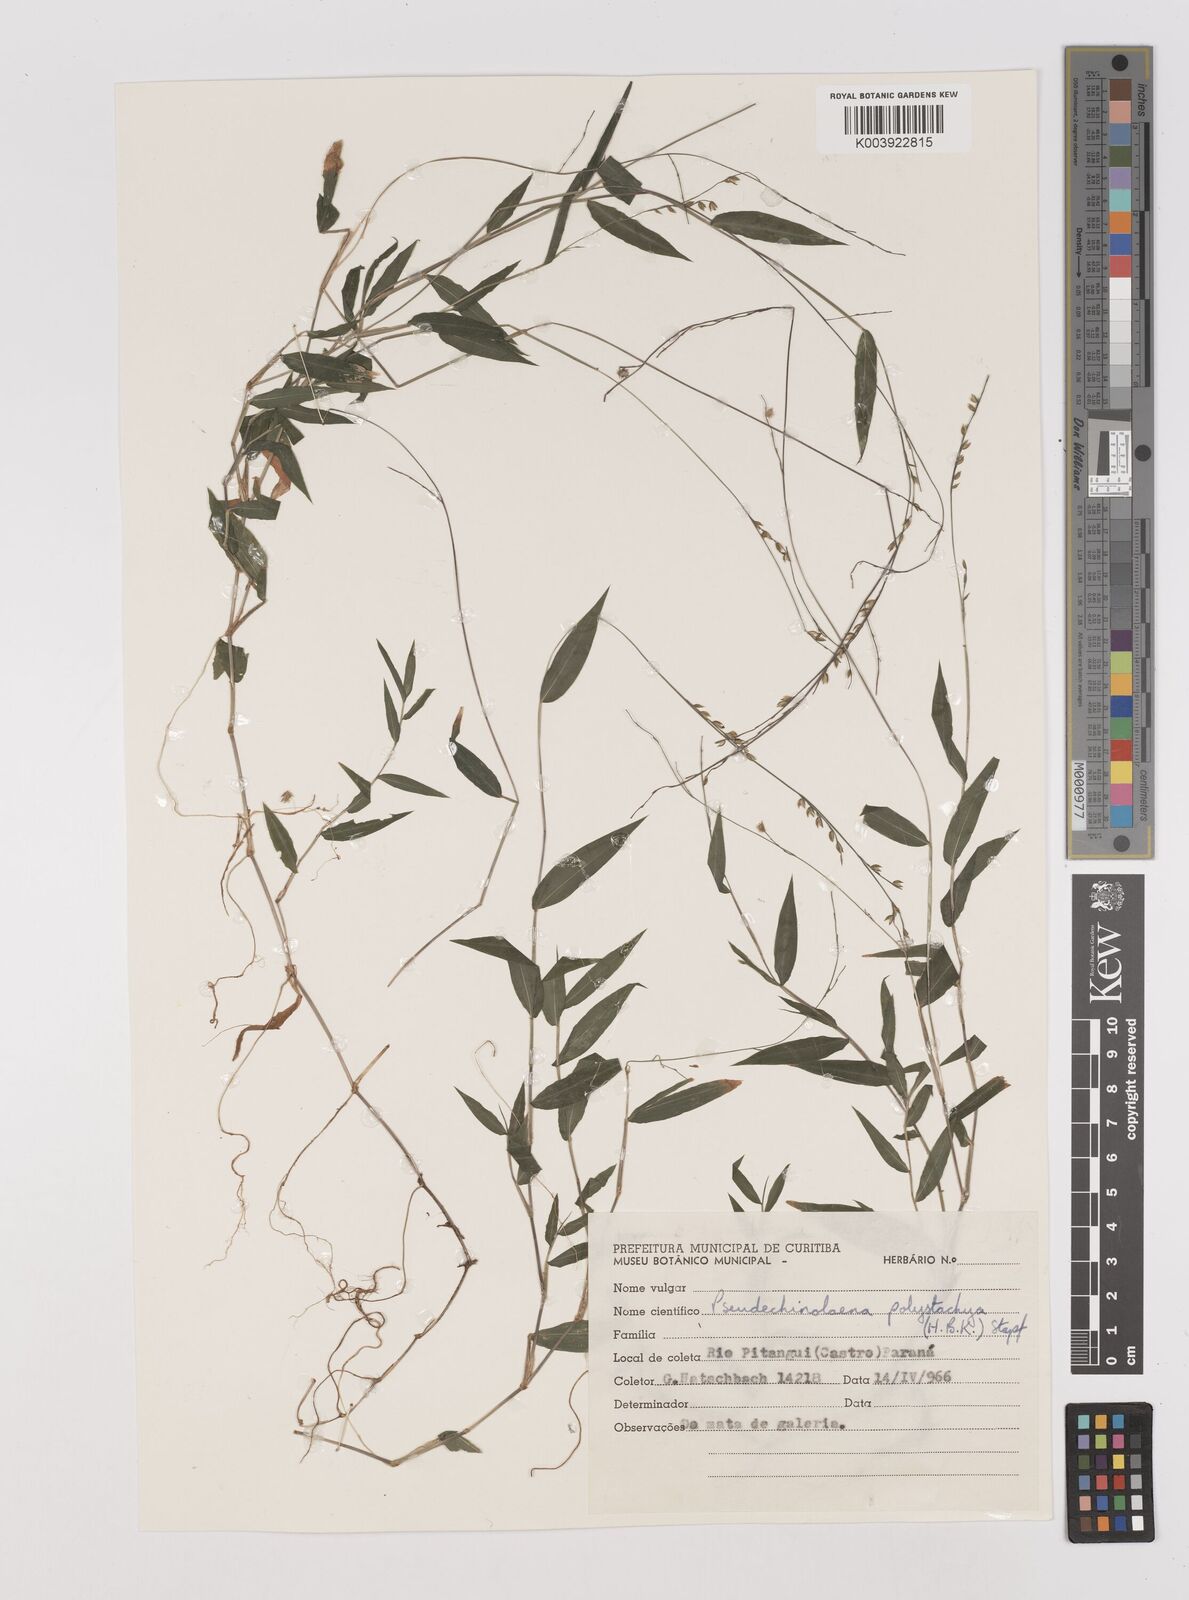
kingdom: Plantae
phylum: Tracheophyta
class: Liliopsida
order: Poales
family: Poaceae
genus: Pseudechinolaena
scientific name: Pseudechinolaena polystachya
